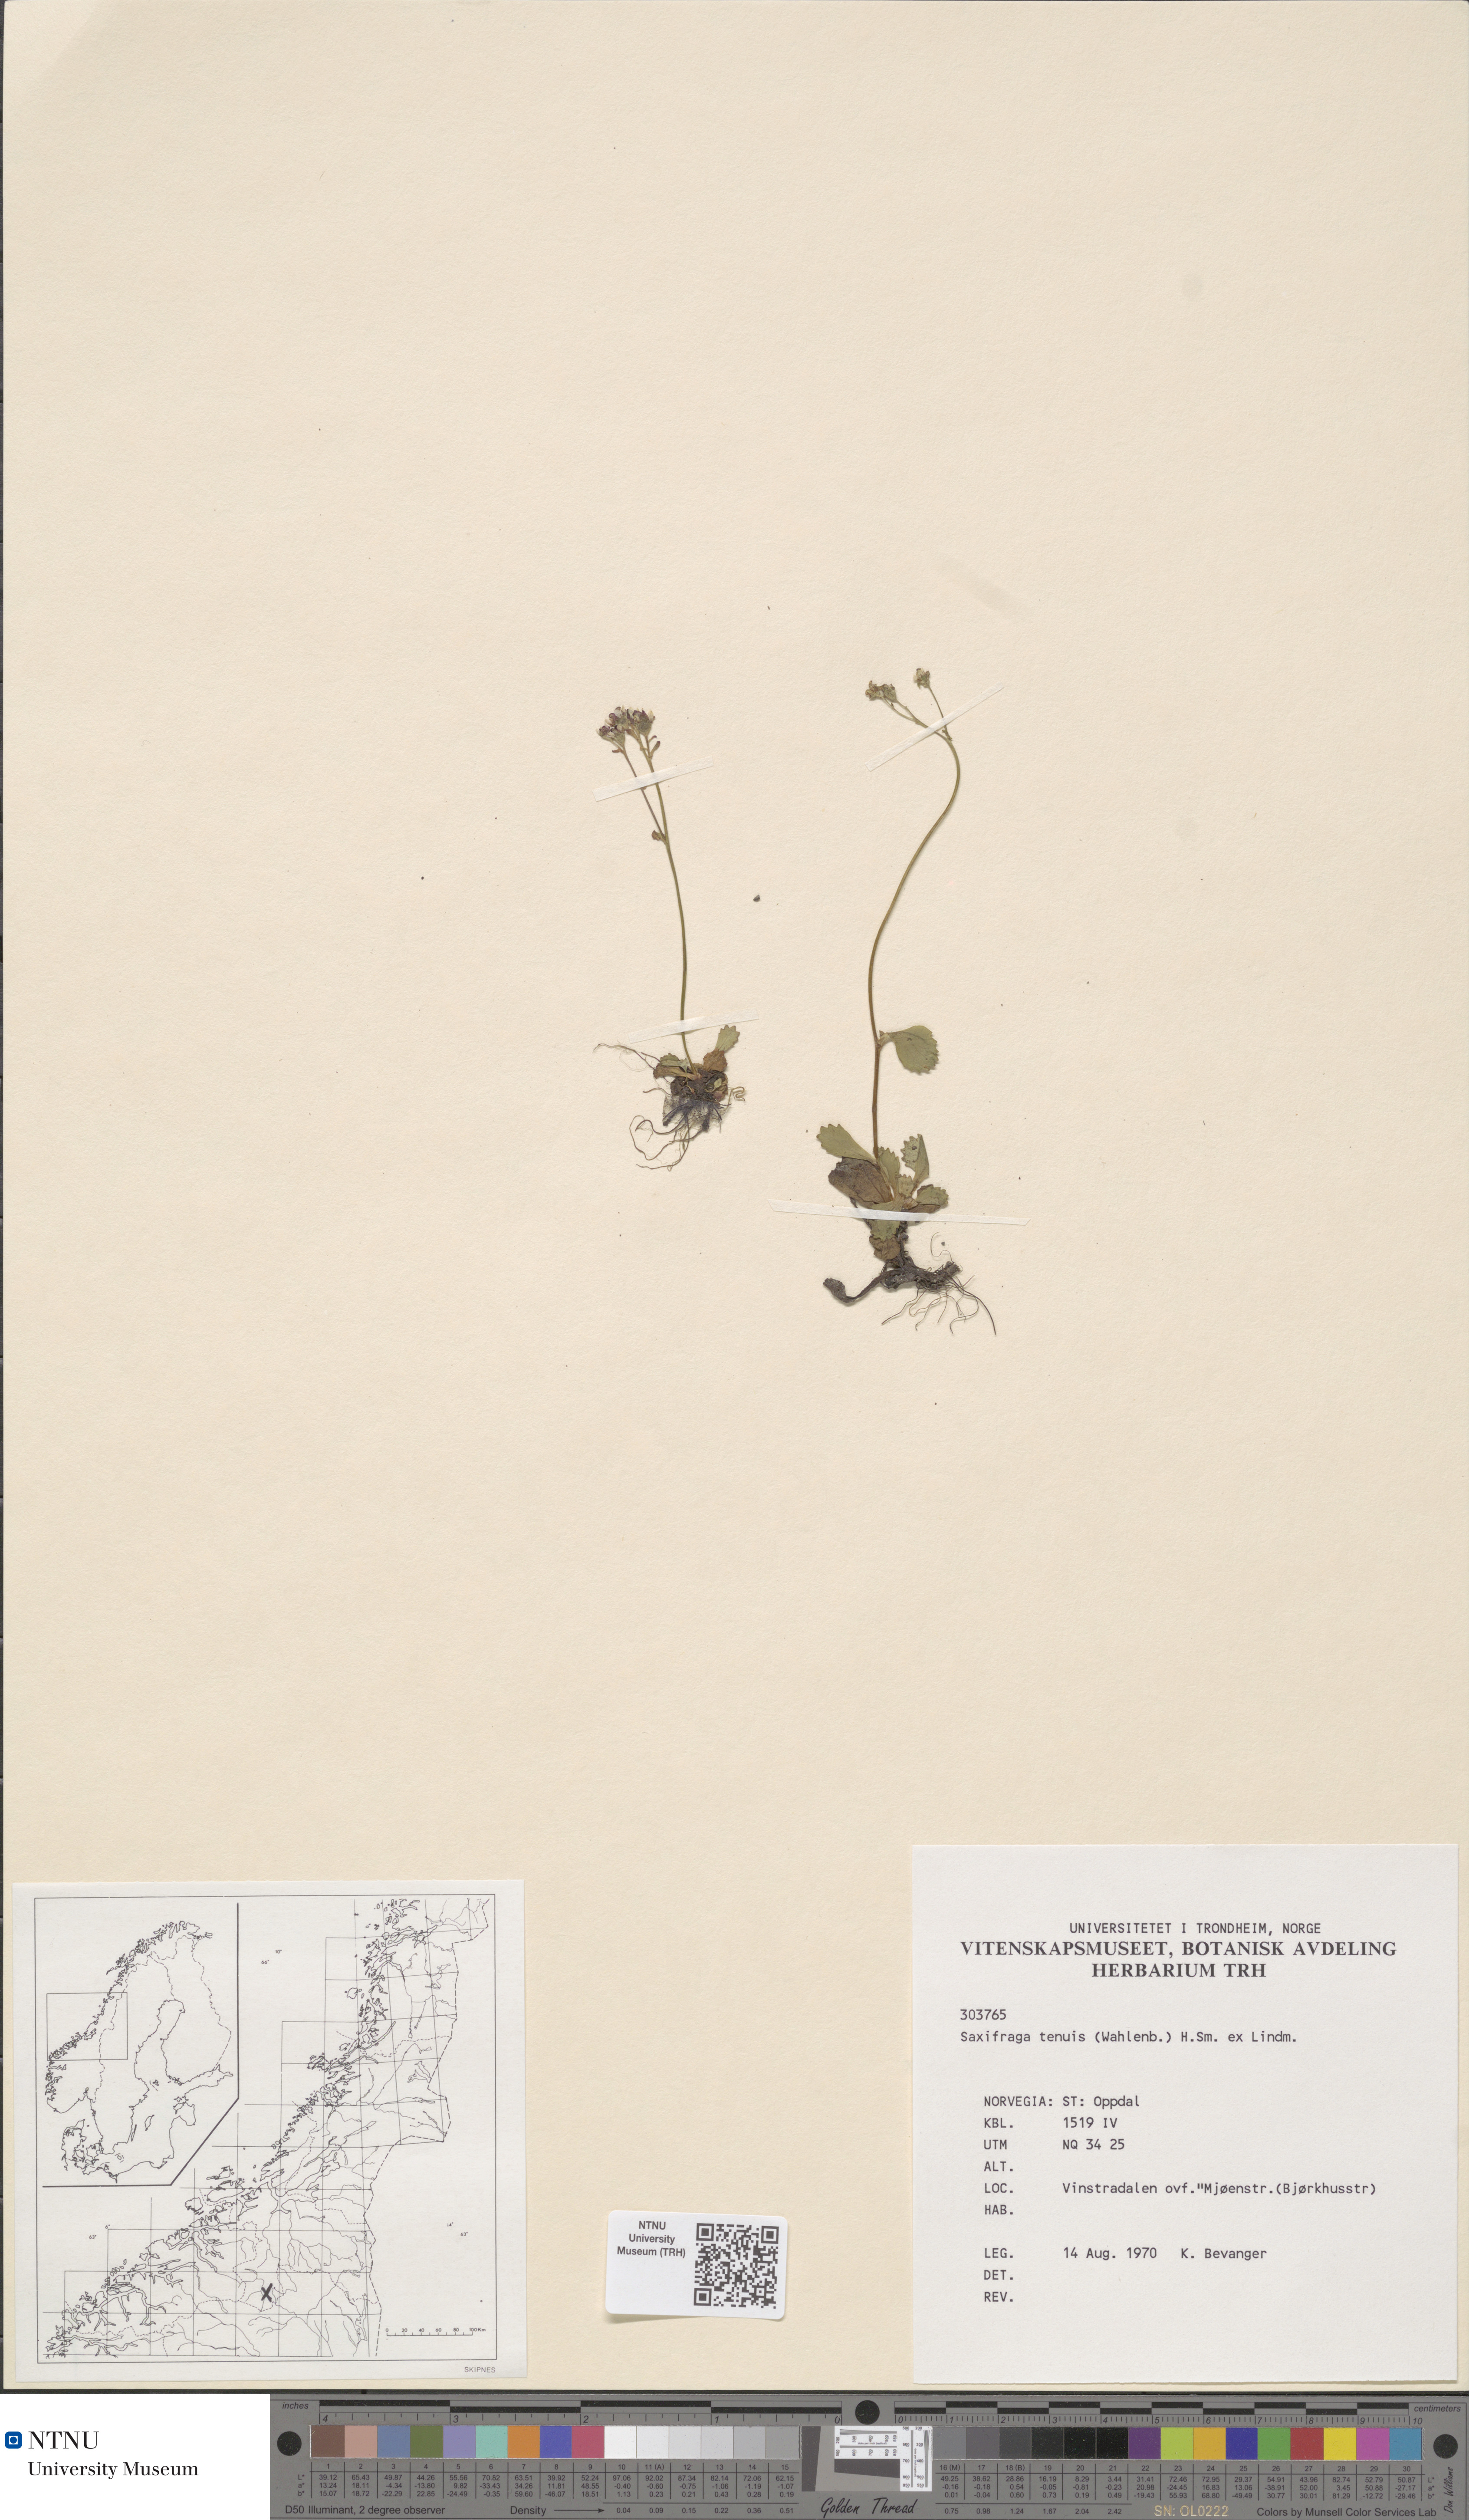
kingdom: Plantae
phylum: Tracheophyta
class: Magnoliopsida
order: Saxifragales
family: Saxifragaceae
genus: Micranthes
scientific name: Micranthes tenuis
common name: Ottertail pass saxifrage
